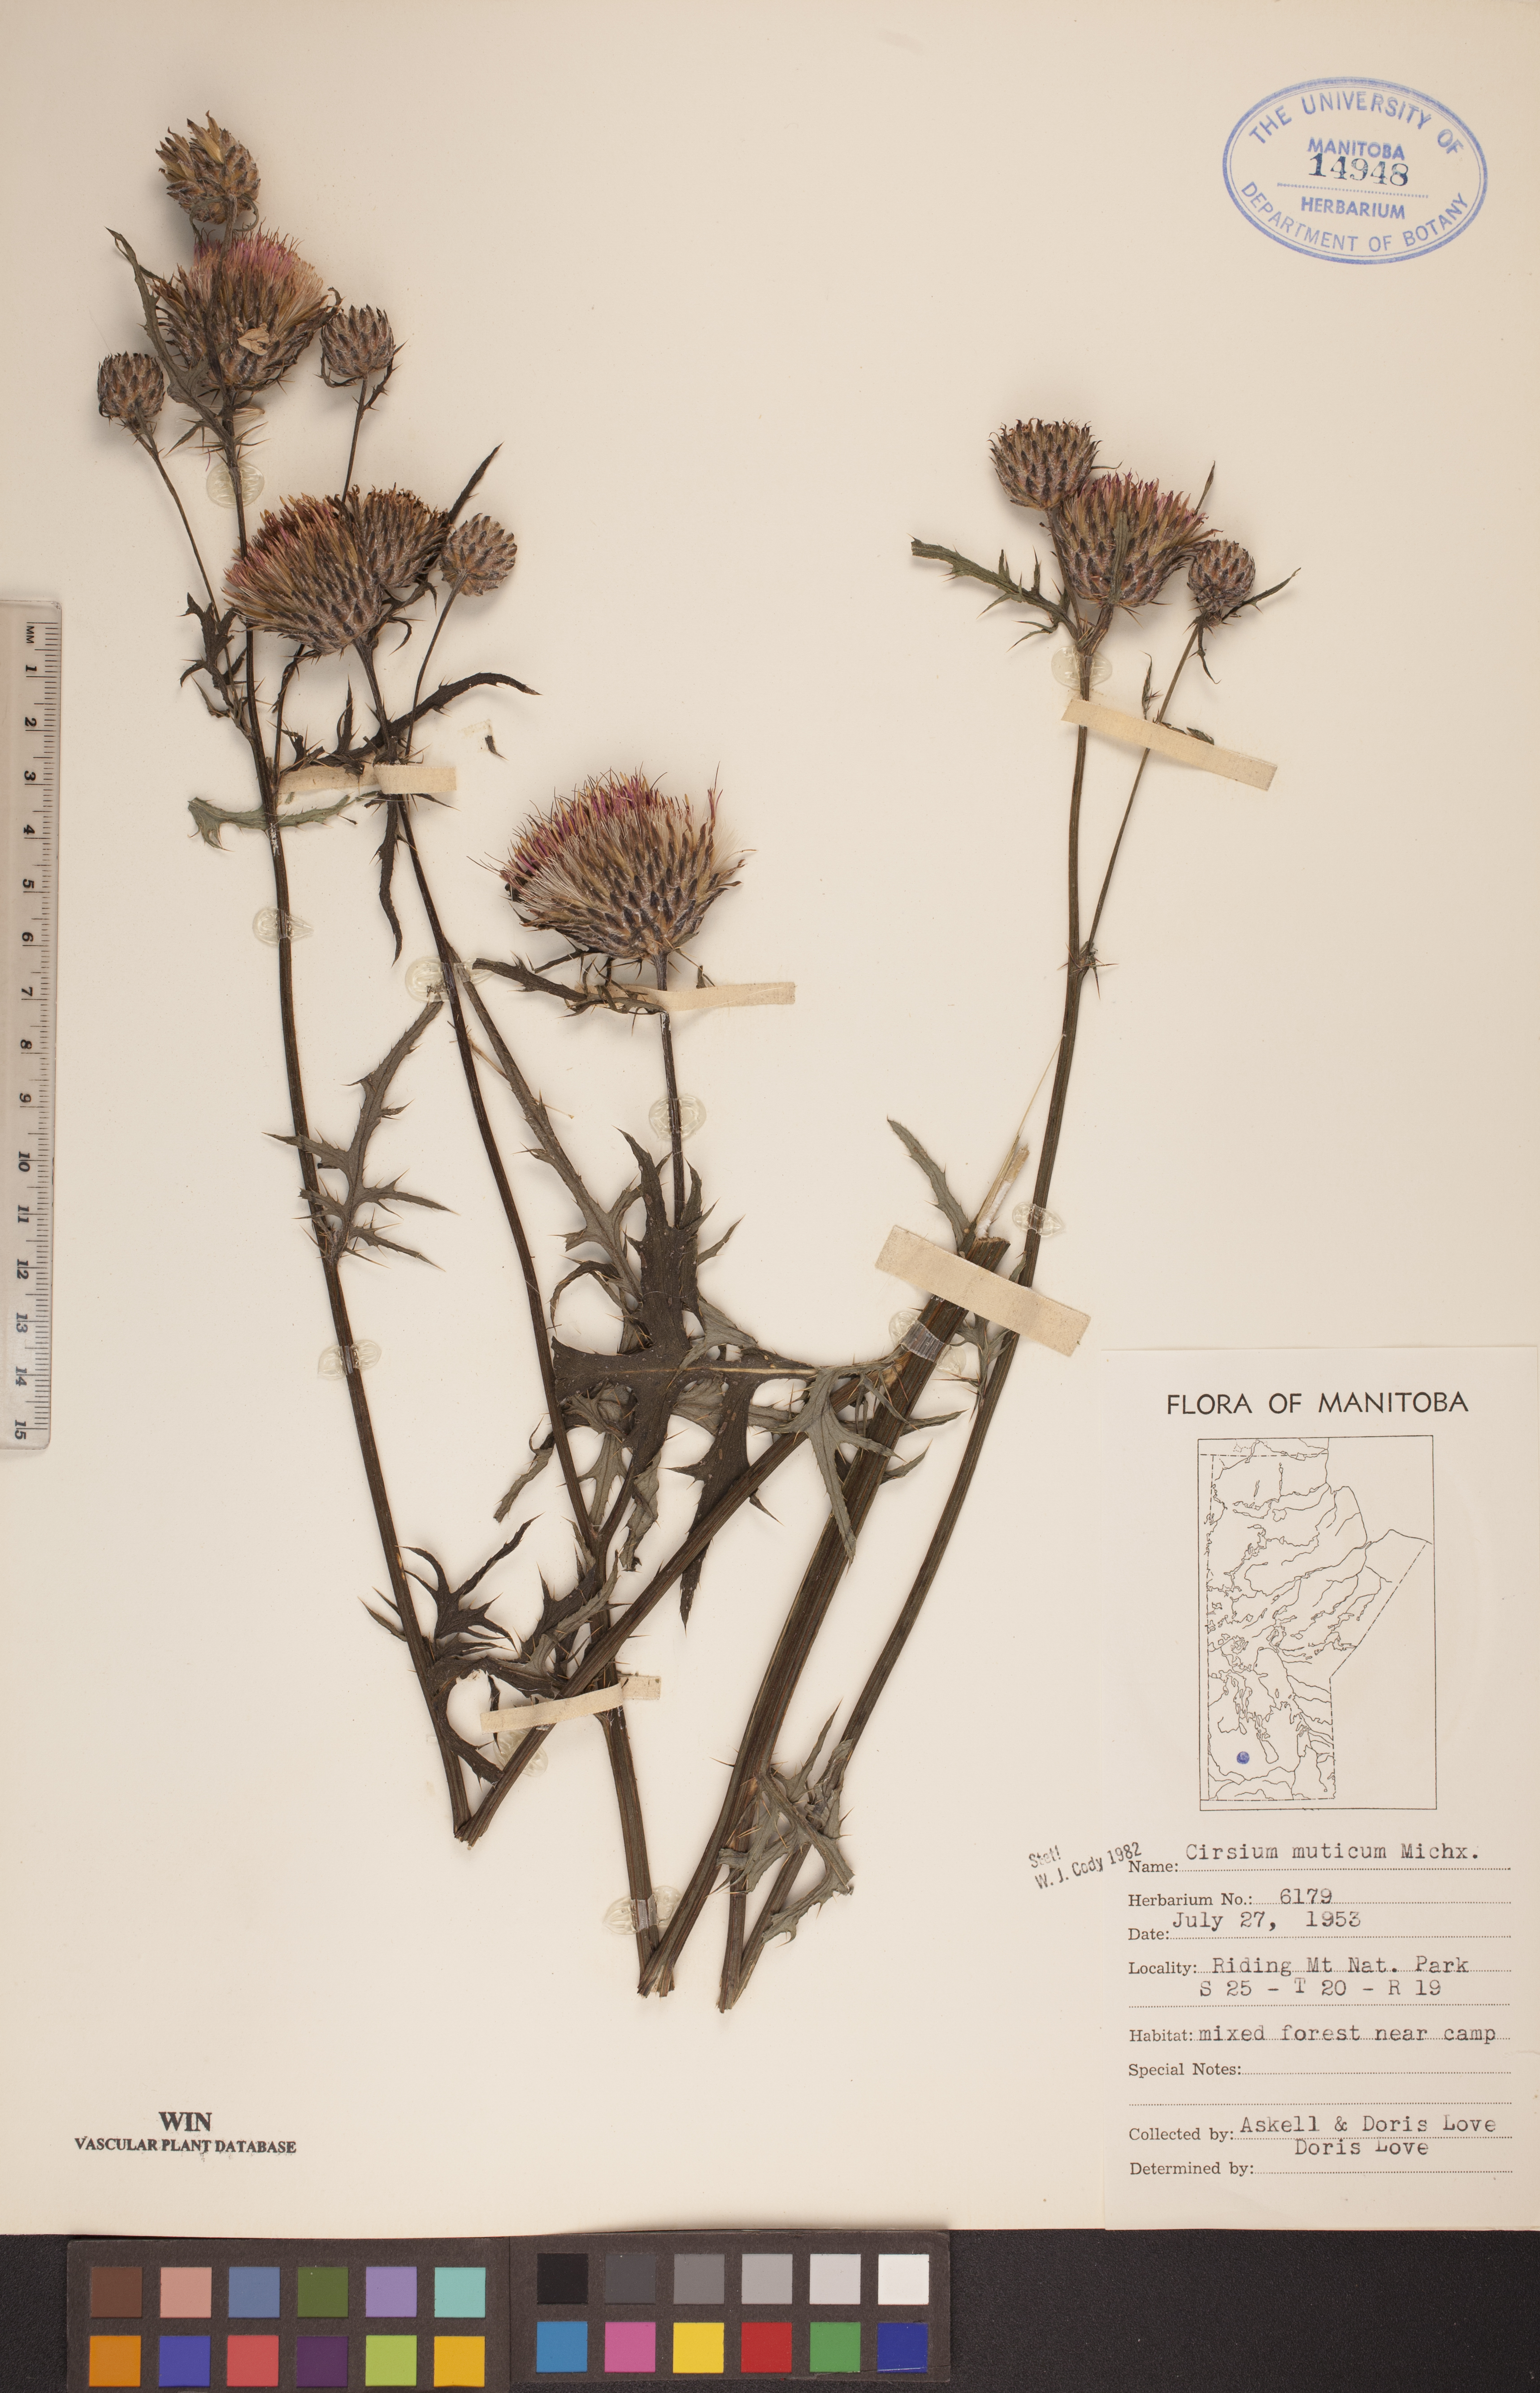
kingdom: Plantae
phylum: Tracheophyta
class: Magnoliopsida
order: Asterales
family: Asteraceae
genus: Cirsium
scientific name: Cirsium muticum
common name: Dunce-nettle
